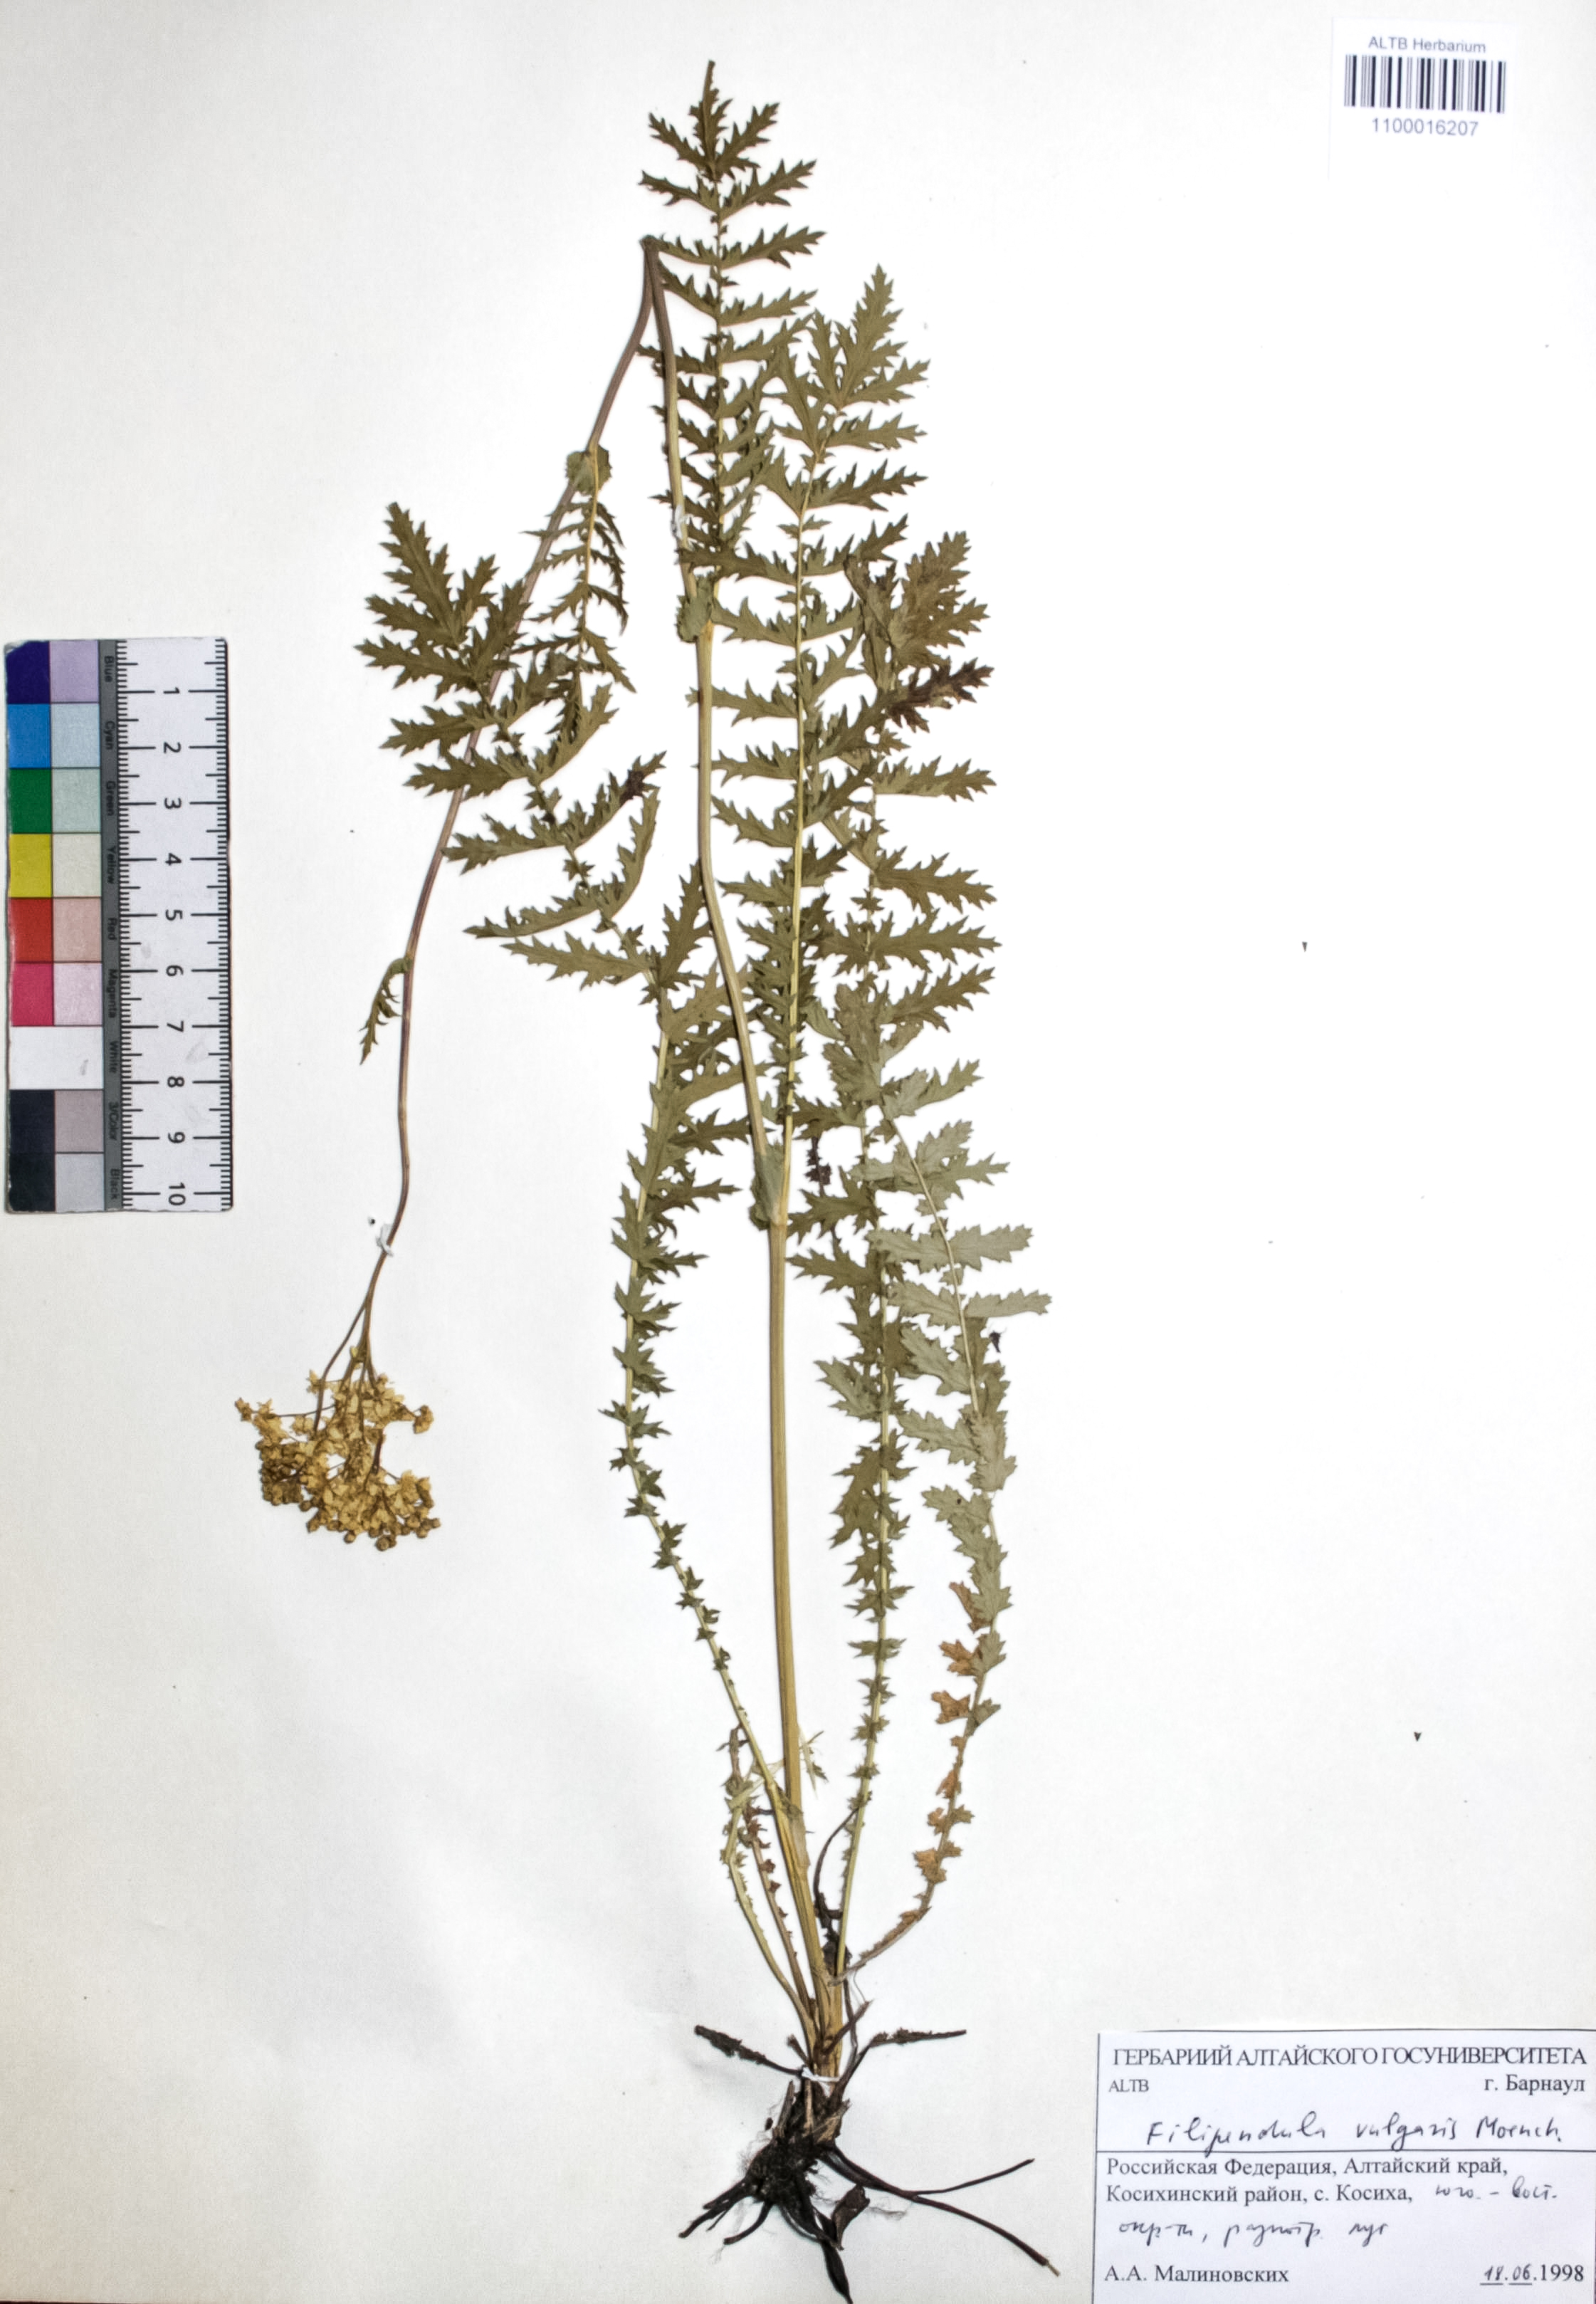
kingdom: Plantae
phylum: Tracheophyta
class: Magnoliopsida
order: Rosales
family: Rosaceae
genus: Filipendula
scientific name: Filipendula vulgaris
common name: Dropwort
